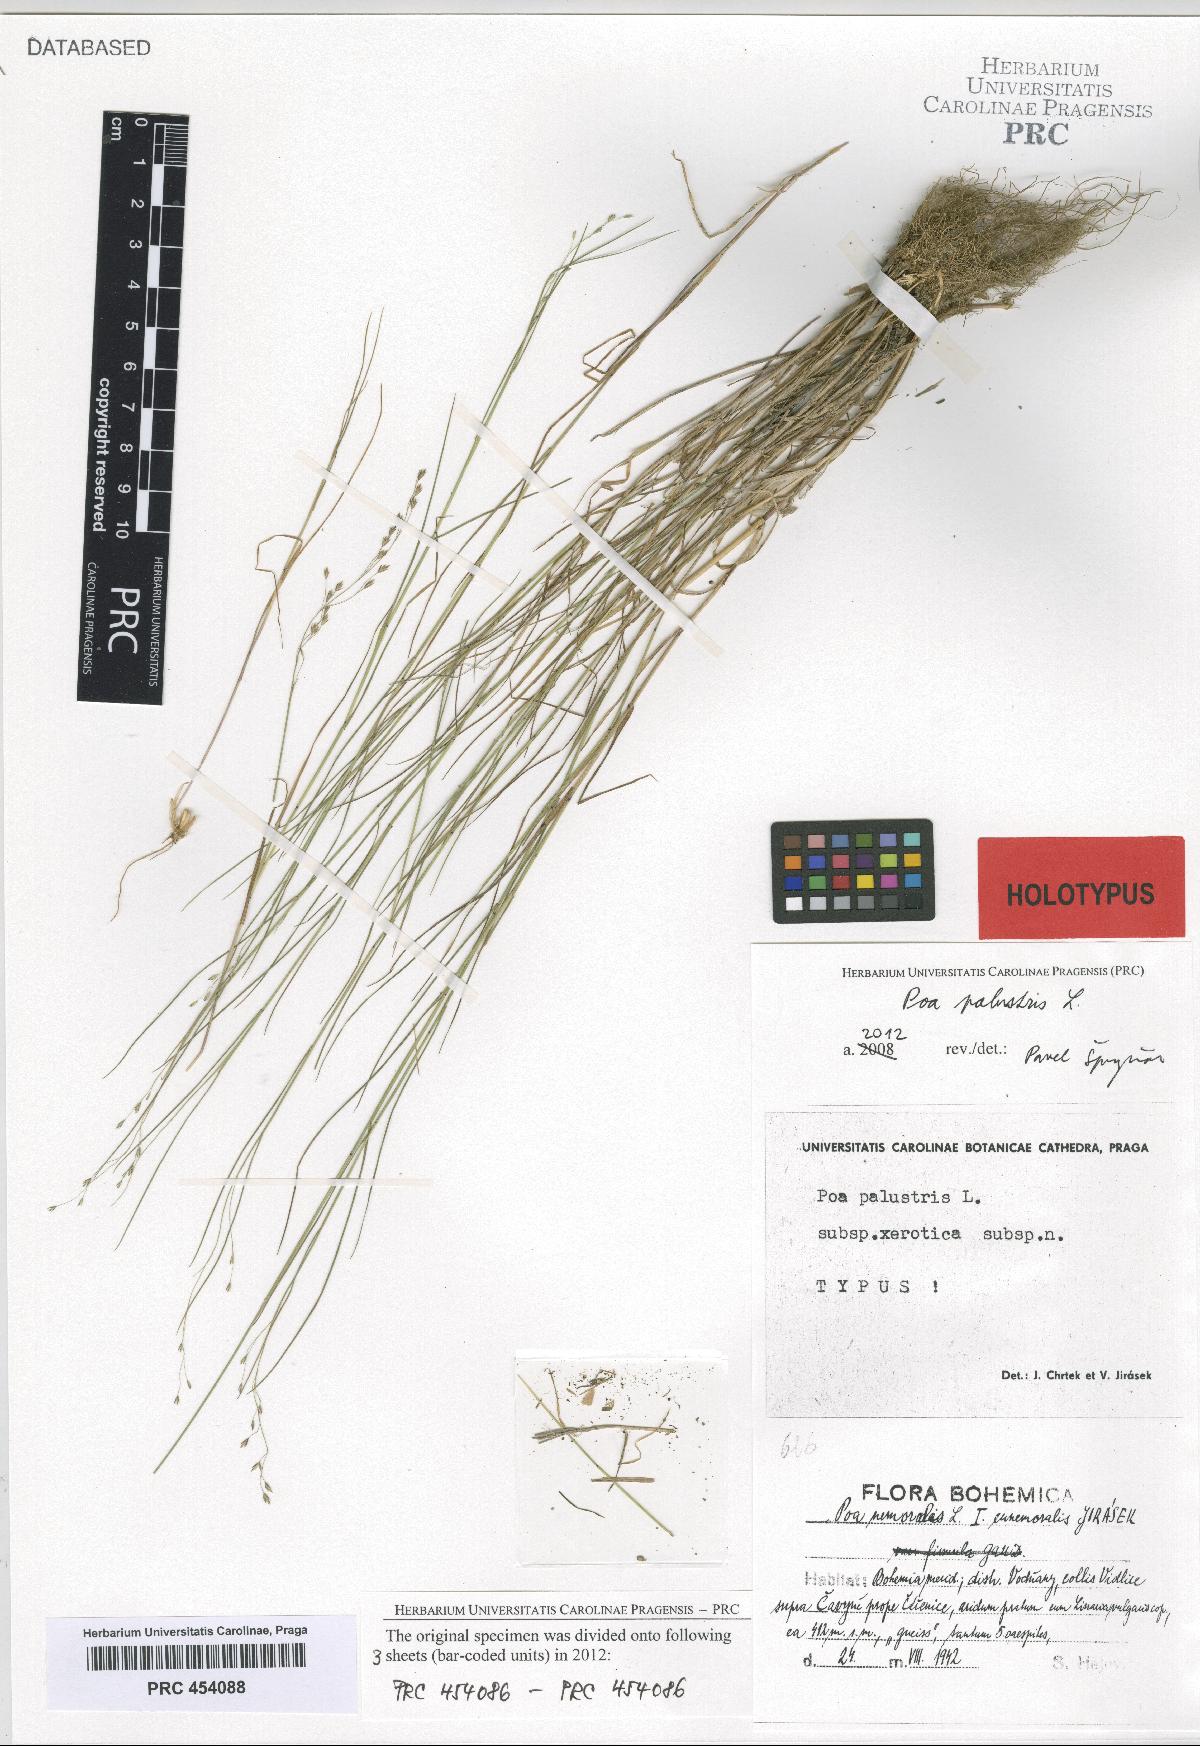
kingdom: Plantae
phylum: Tracheophyta
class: Liliopsida
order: Poales
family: Poaceae
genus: Poa
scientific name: Poa palustris
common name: Swamp meadow-grass
